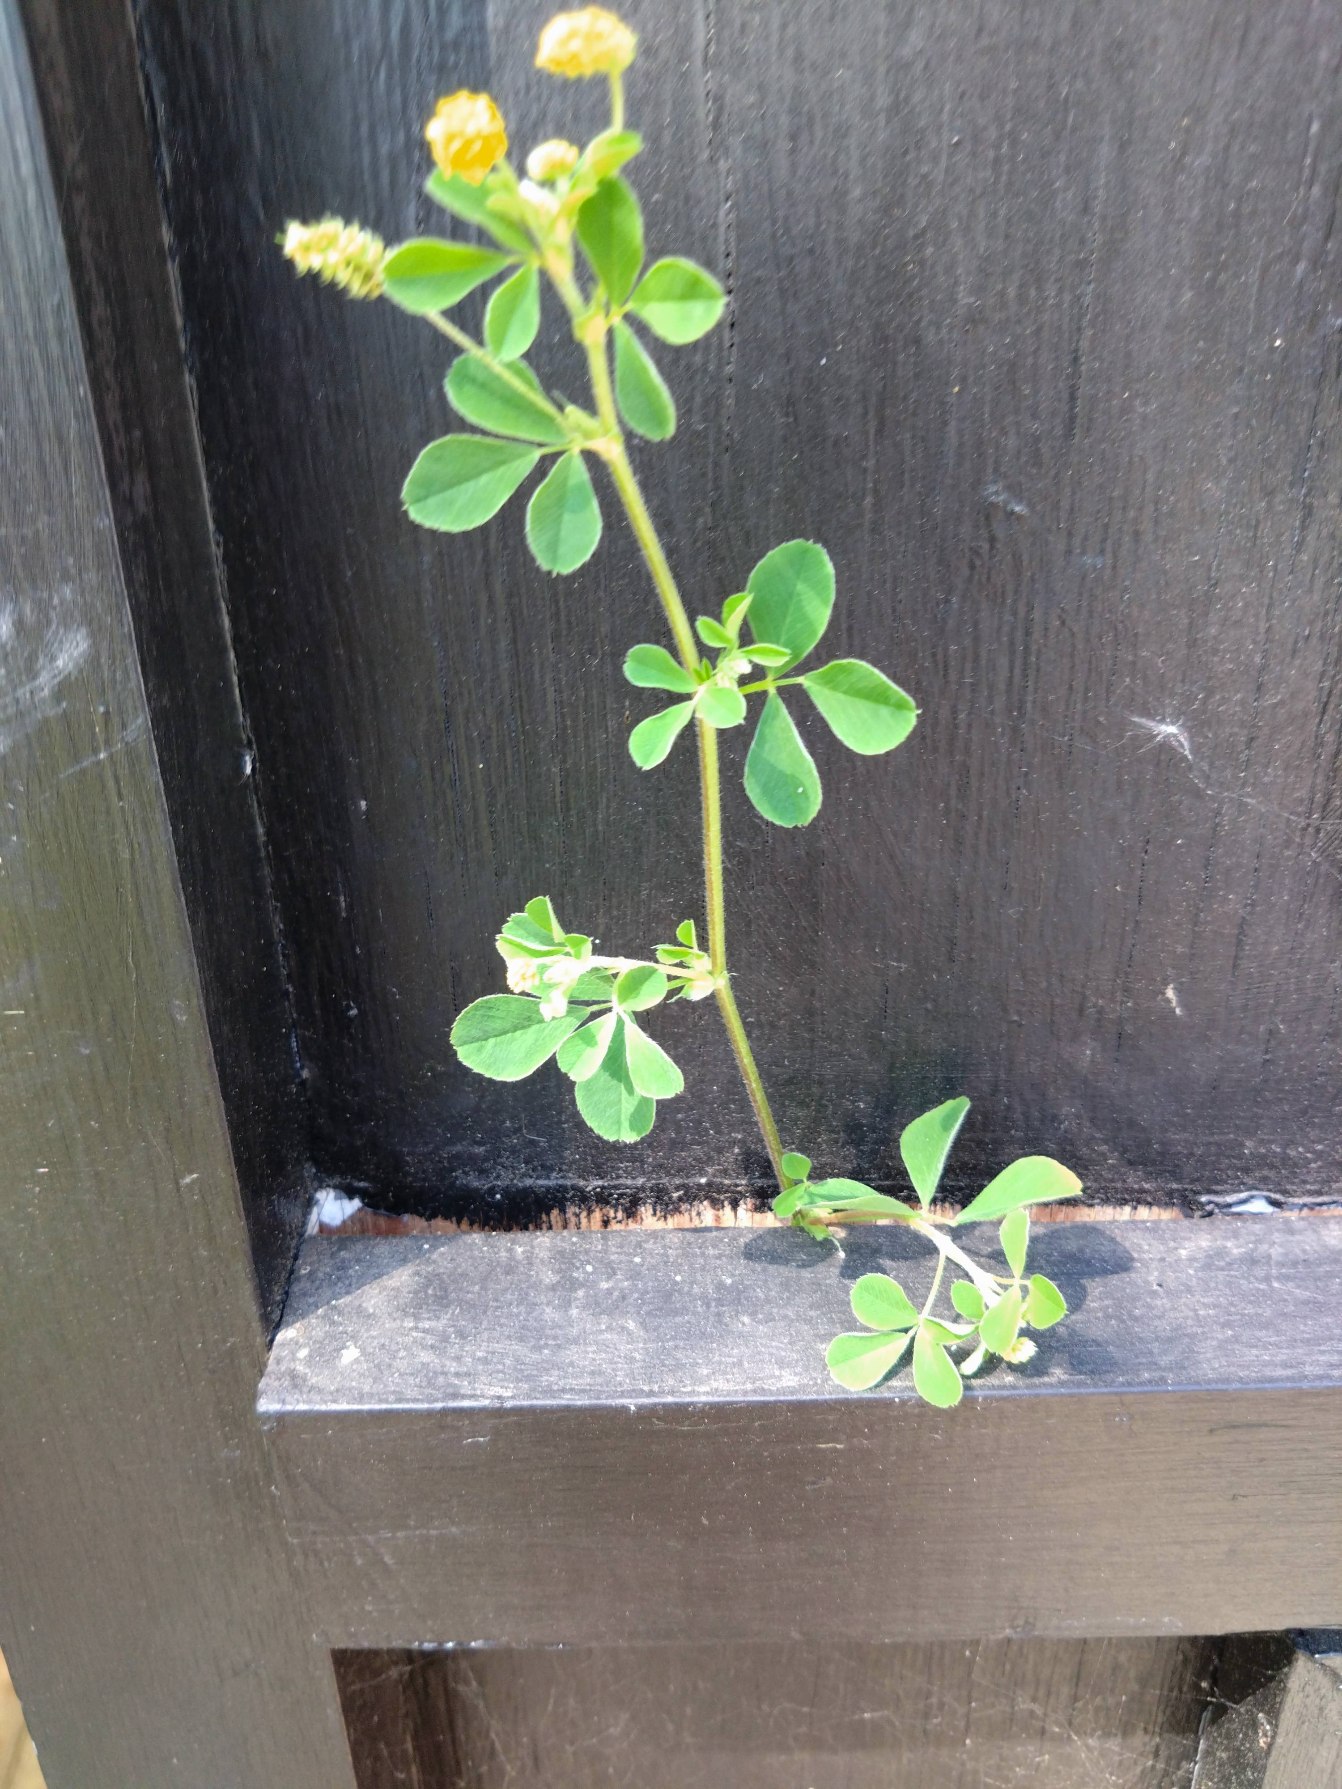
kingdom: Plantae
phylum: Tracheophyta
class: Magnoliopsida
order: Fabales
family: Fabaceae
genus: Medicago
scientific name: Medicago lupulina
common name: Humle-sneglebælg
